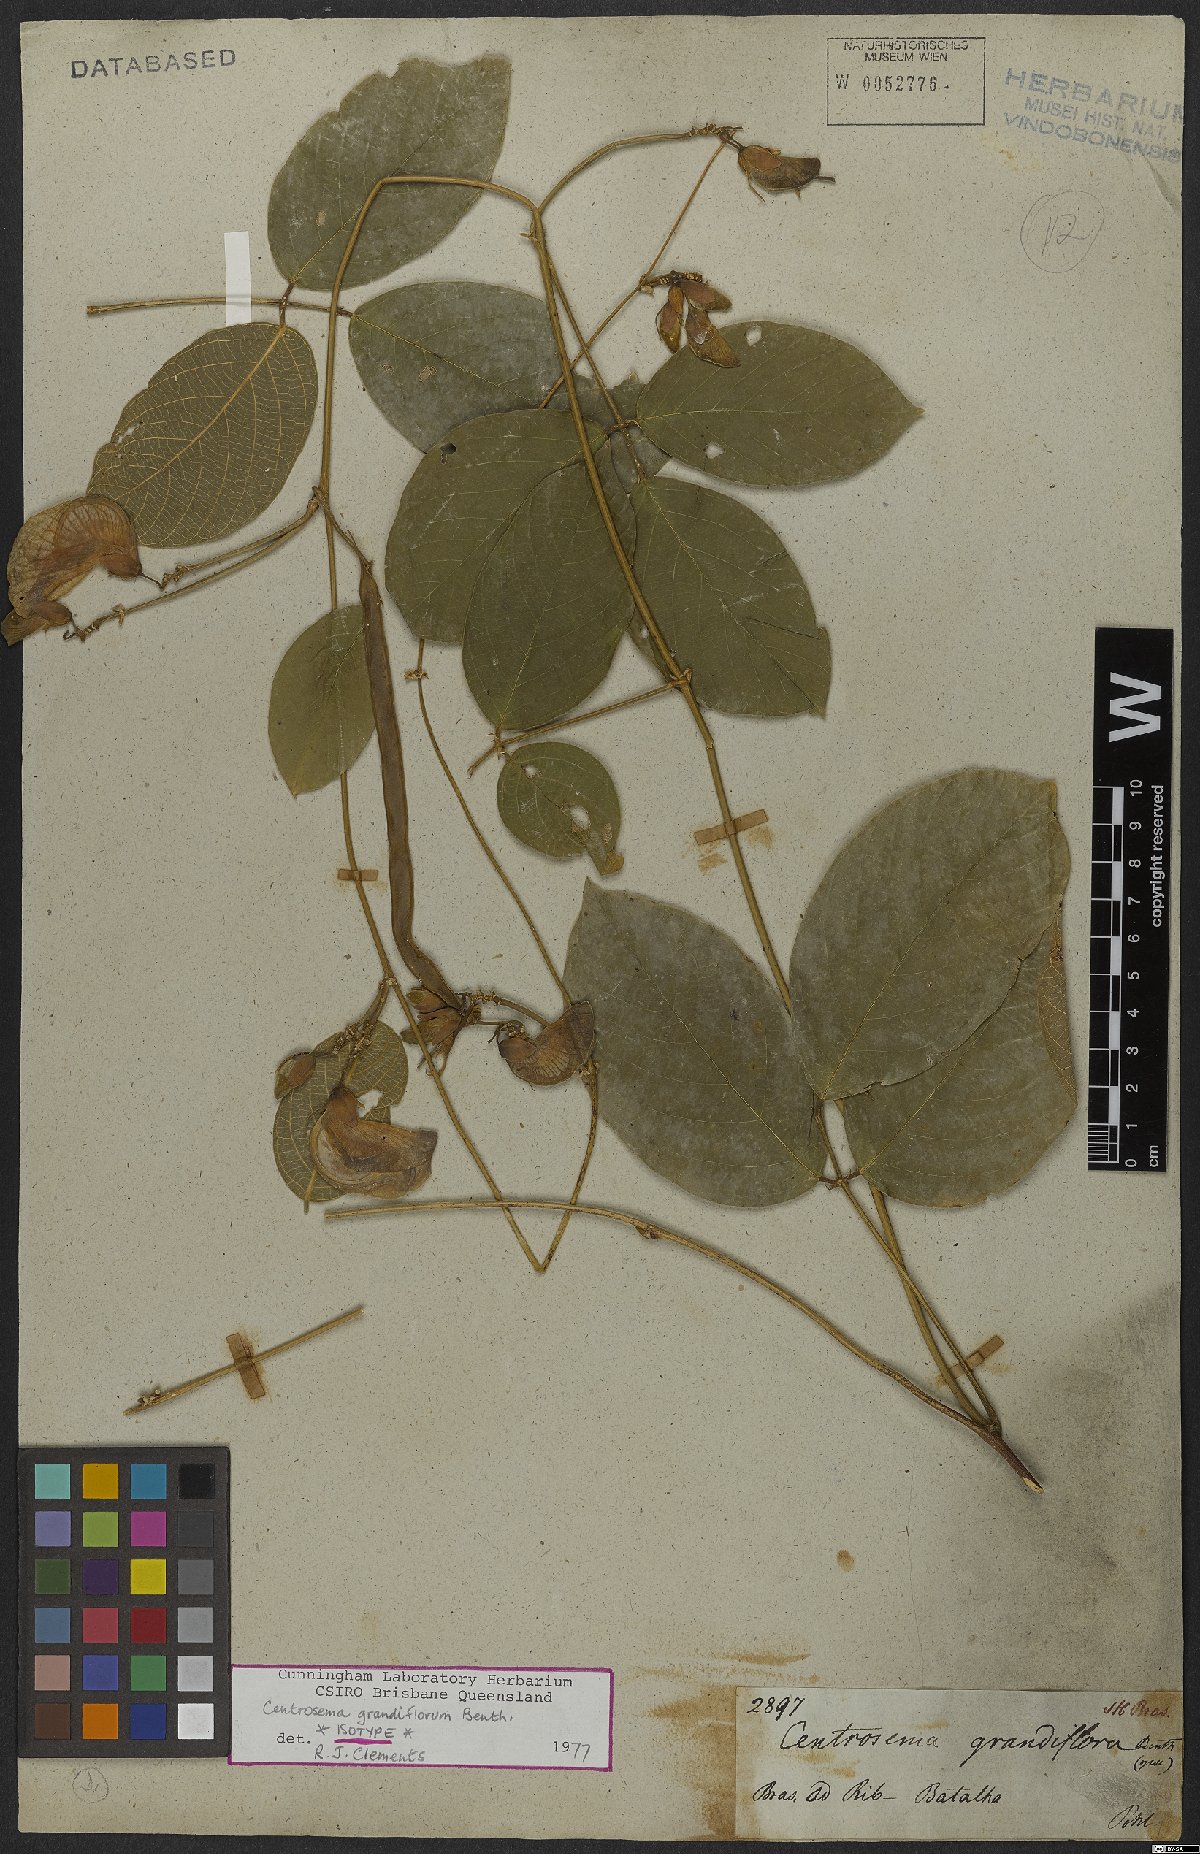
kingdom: Plantae
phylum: Tracheophyta
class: Magnoliopsida
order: Fabales
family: Fabaceae
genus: Centrosema
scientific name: Centrosema grandiflorum
